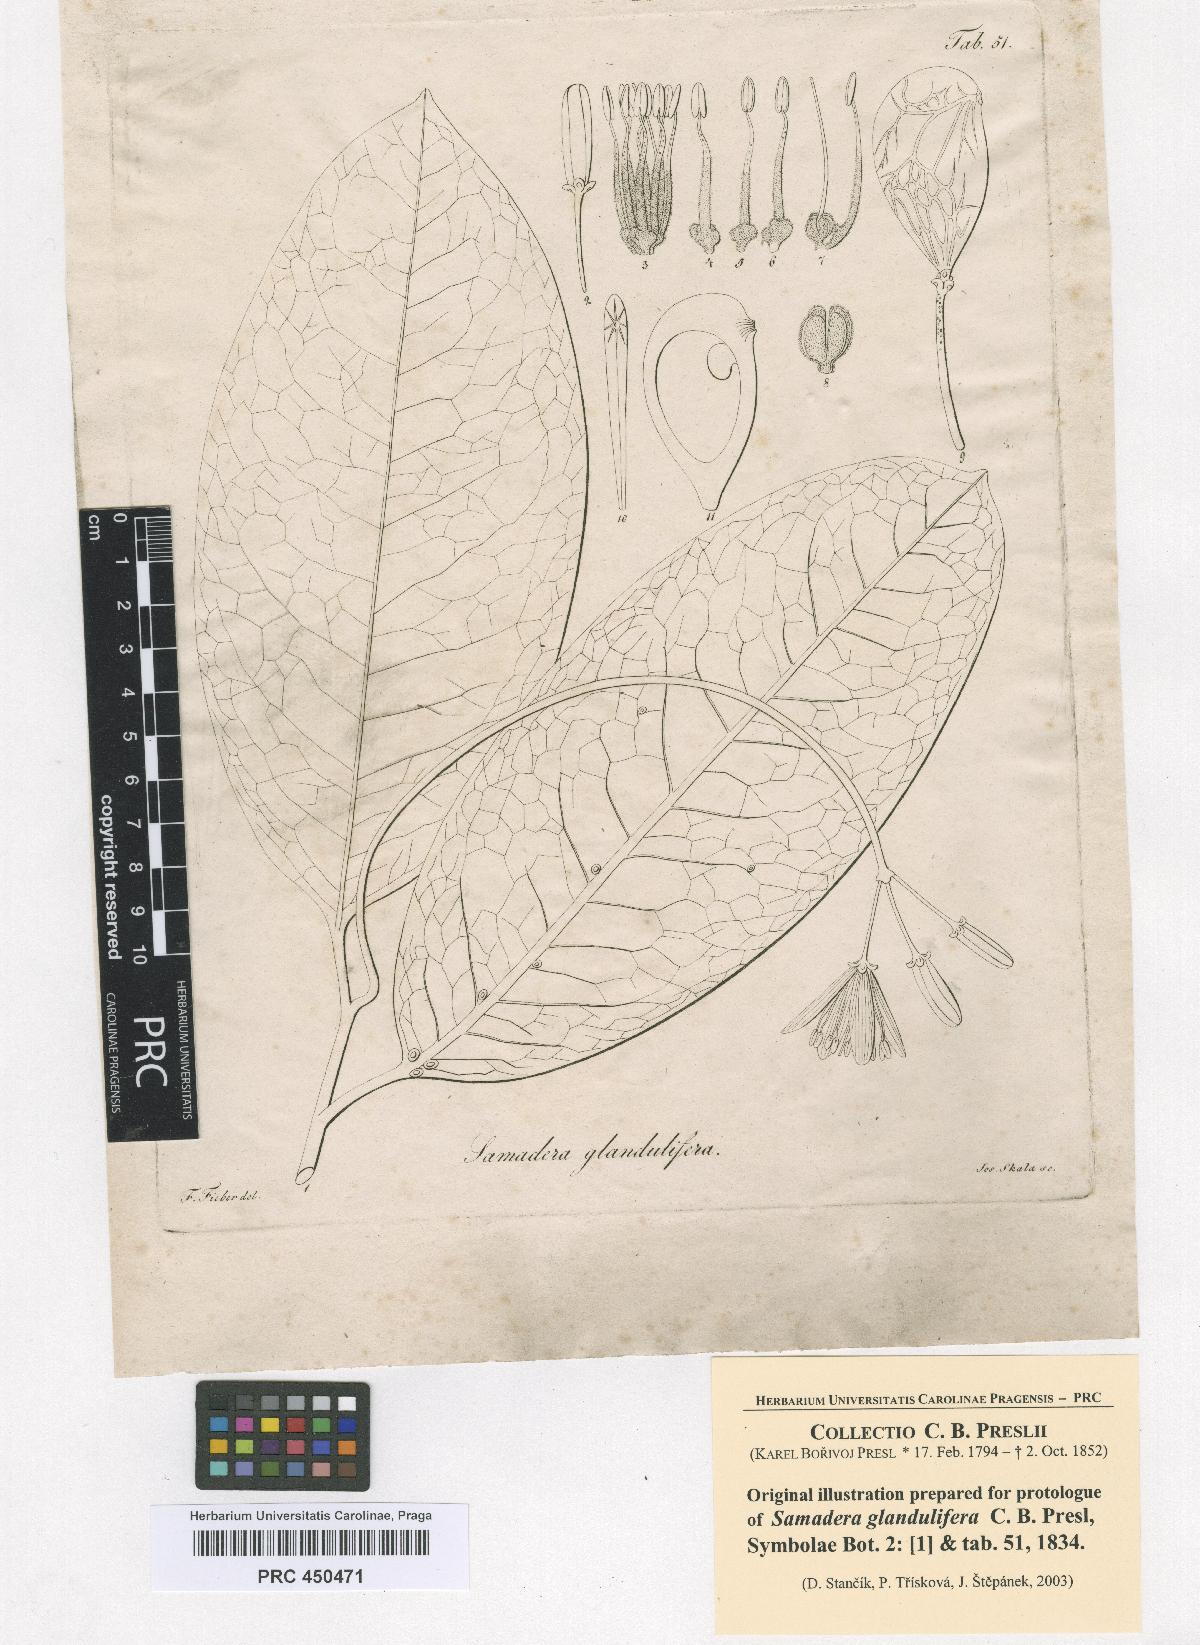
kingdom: Plantae
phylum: Tracheophyta
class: Magnoliopsida
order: Sapindales
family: Simaroubaceae
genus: Samadera
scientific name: Samadera indica
